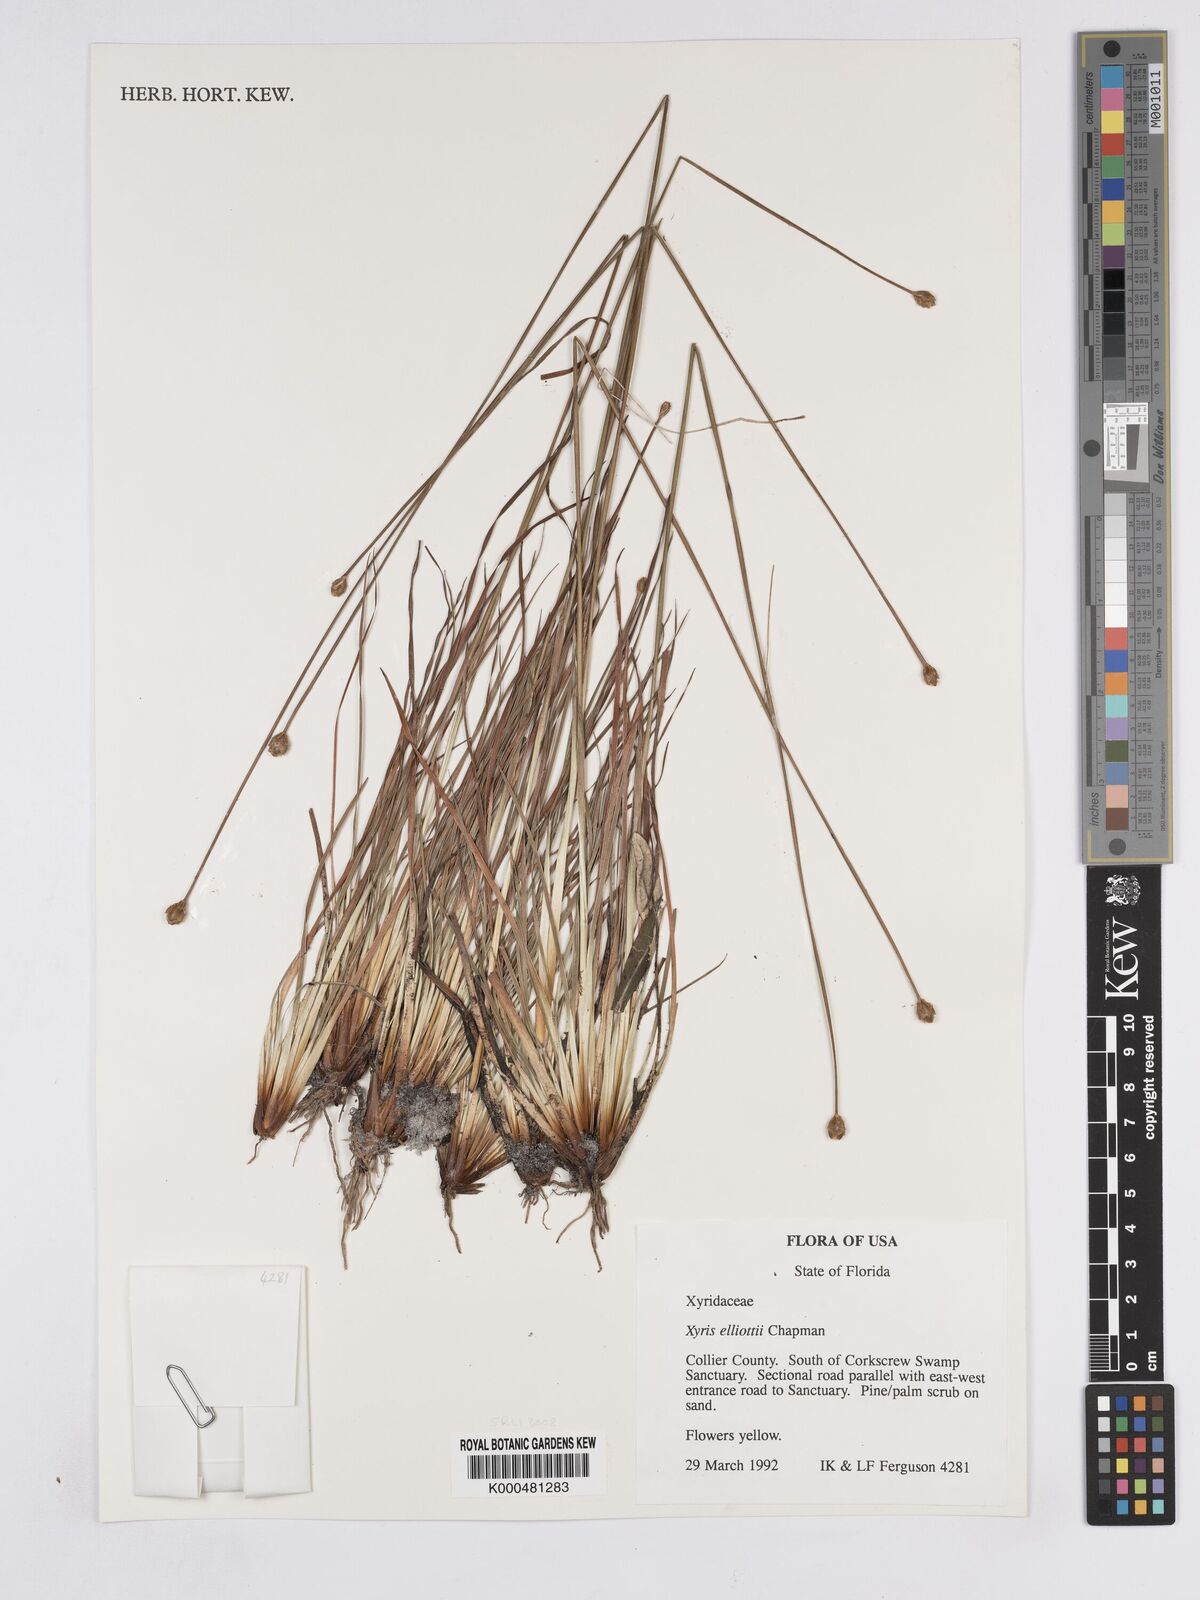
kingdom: Plantae
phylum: Tracheophyta
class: Liliopsida
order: Poales
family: Xyridaceae
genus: Xyris
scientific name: Xyris elliottii
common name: Elliot's yelloweyed grass
